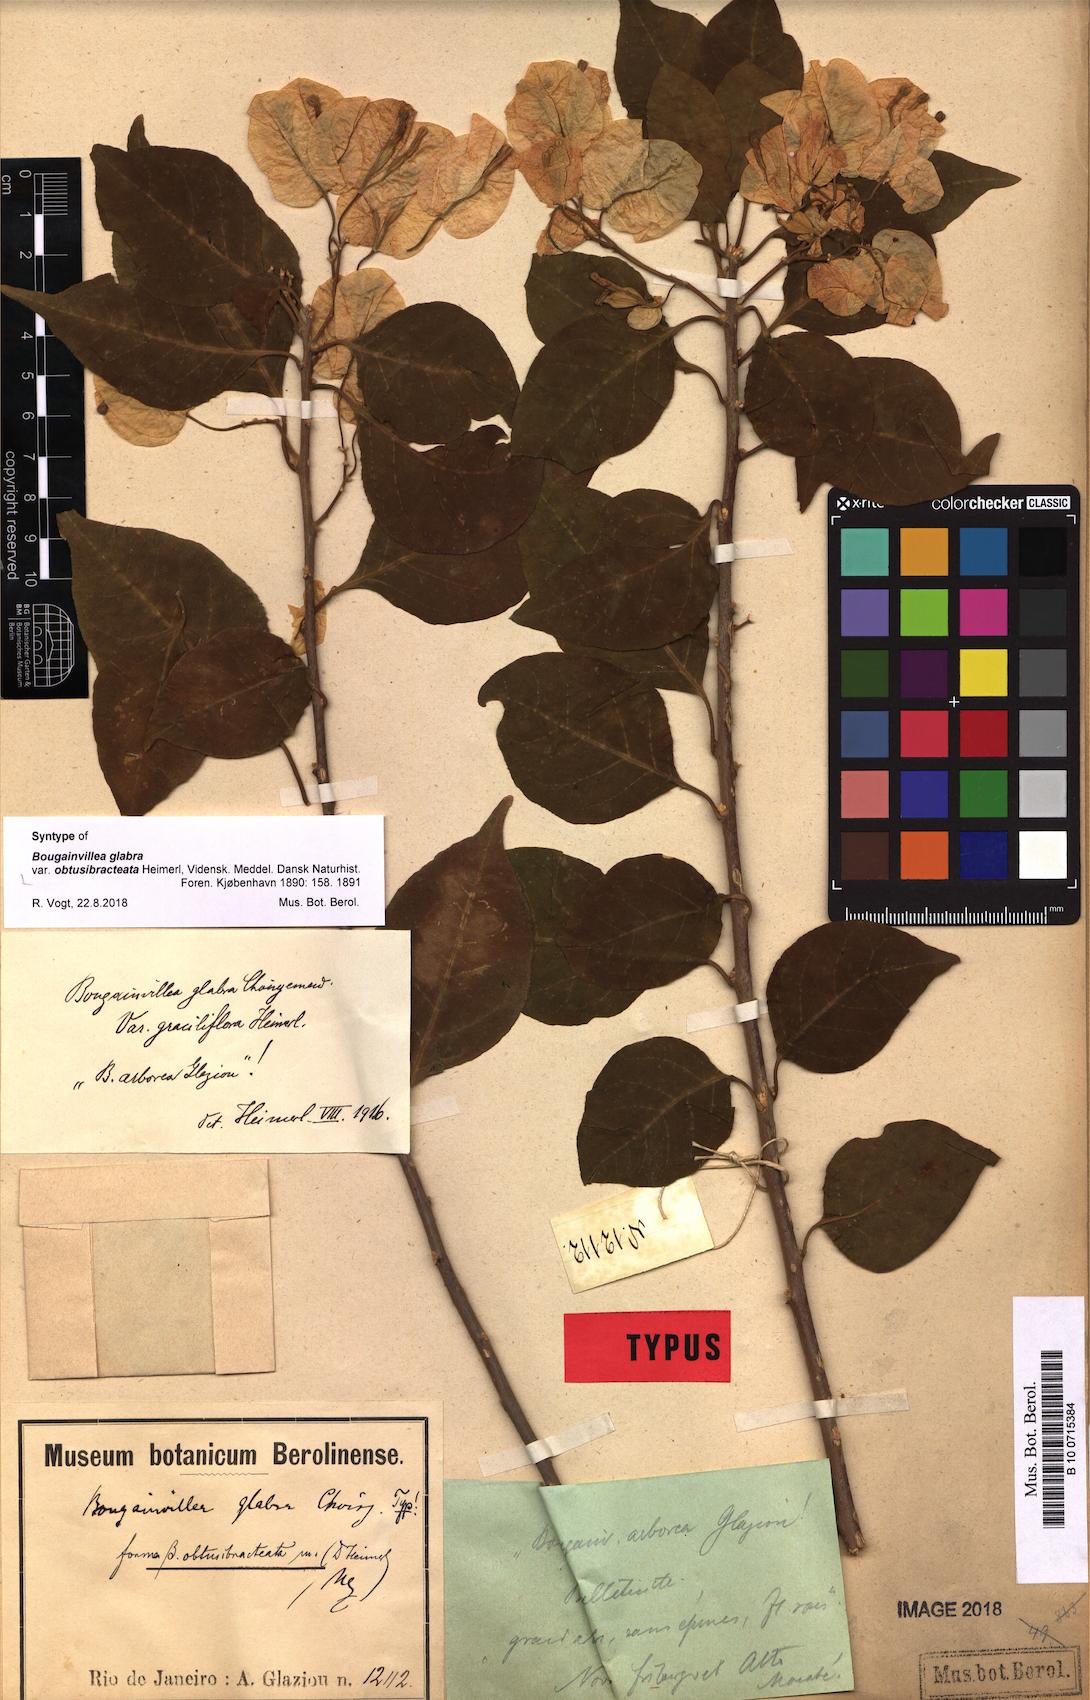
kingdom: Plantae
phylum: Tracheophyta
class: Magnoliopsida
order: Caryophyllales
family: Nyctaginaceae
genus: Bougainvillea
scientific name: Bougainvillea glabra
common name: Paperflower
